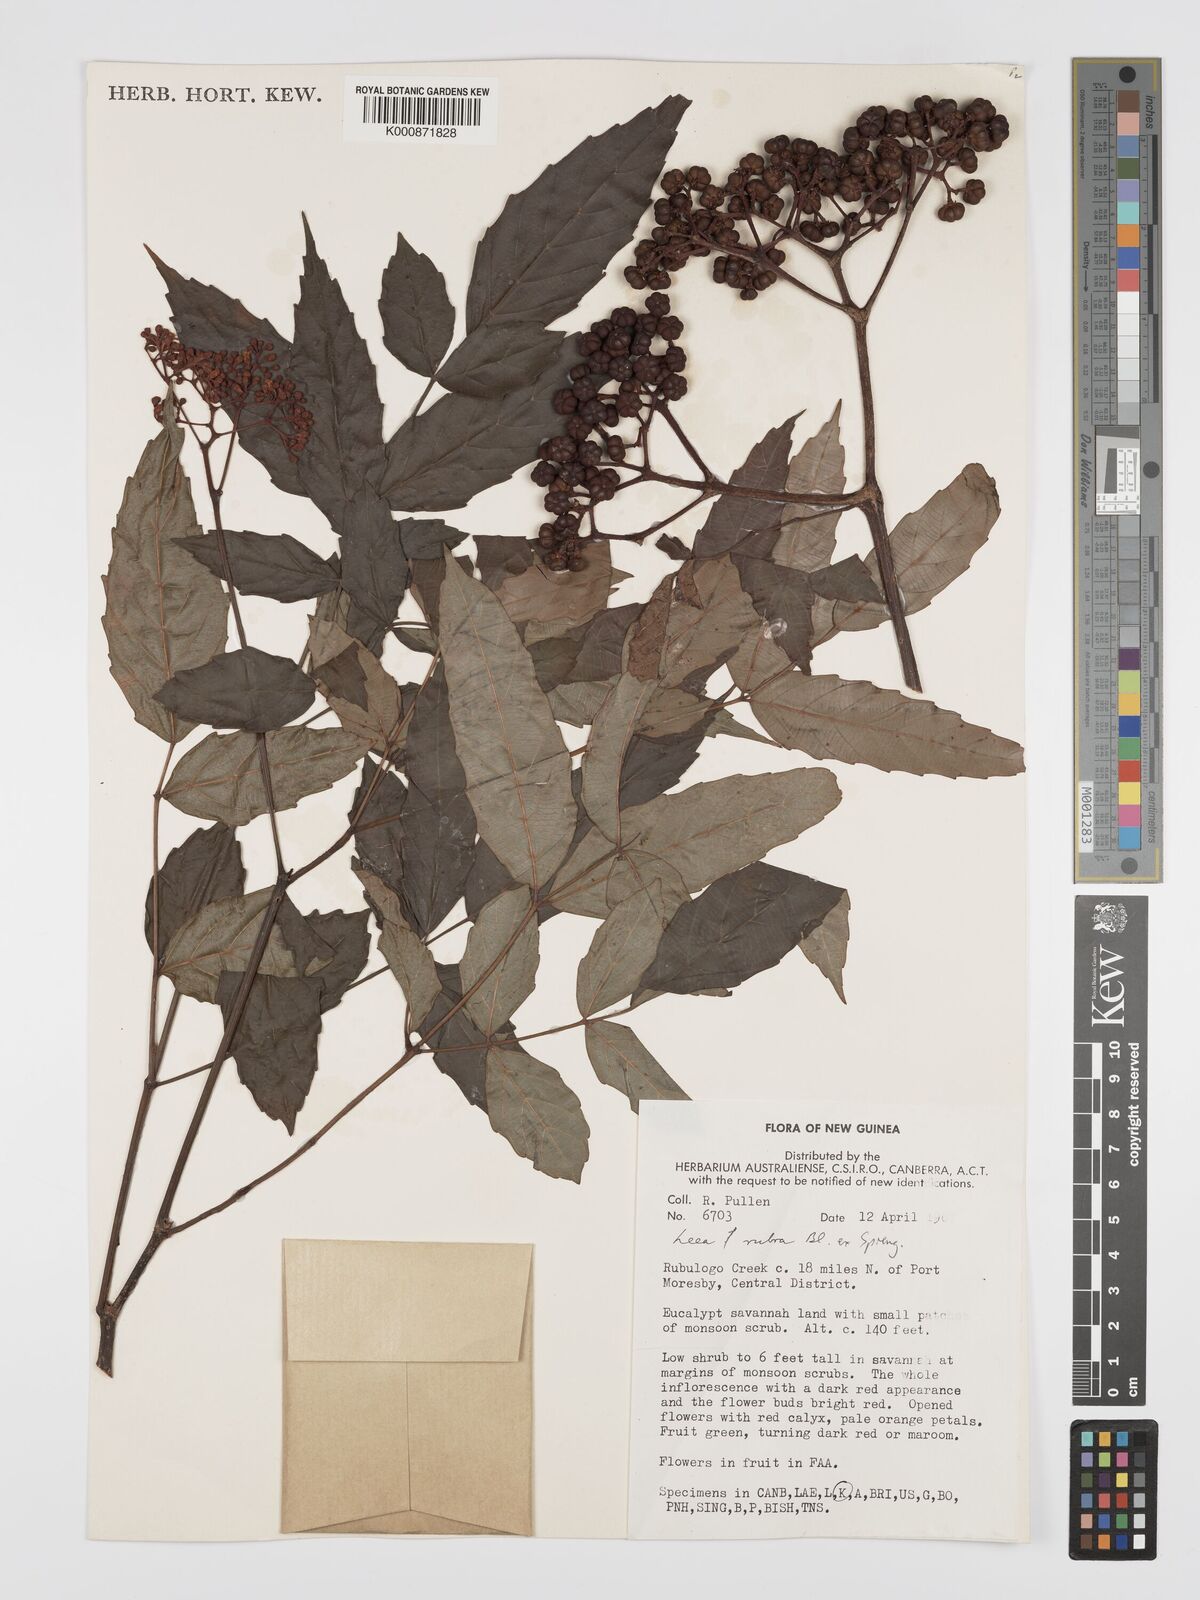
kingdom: Plantae
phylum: Tracheophyta
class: Magnoliopsida
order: Vitales
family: Vitaceae
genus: Leea
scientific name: Leea
